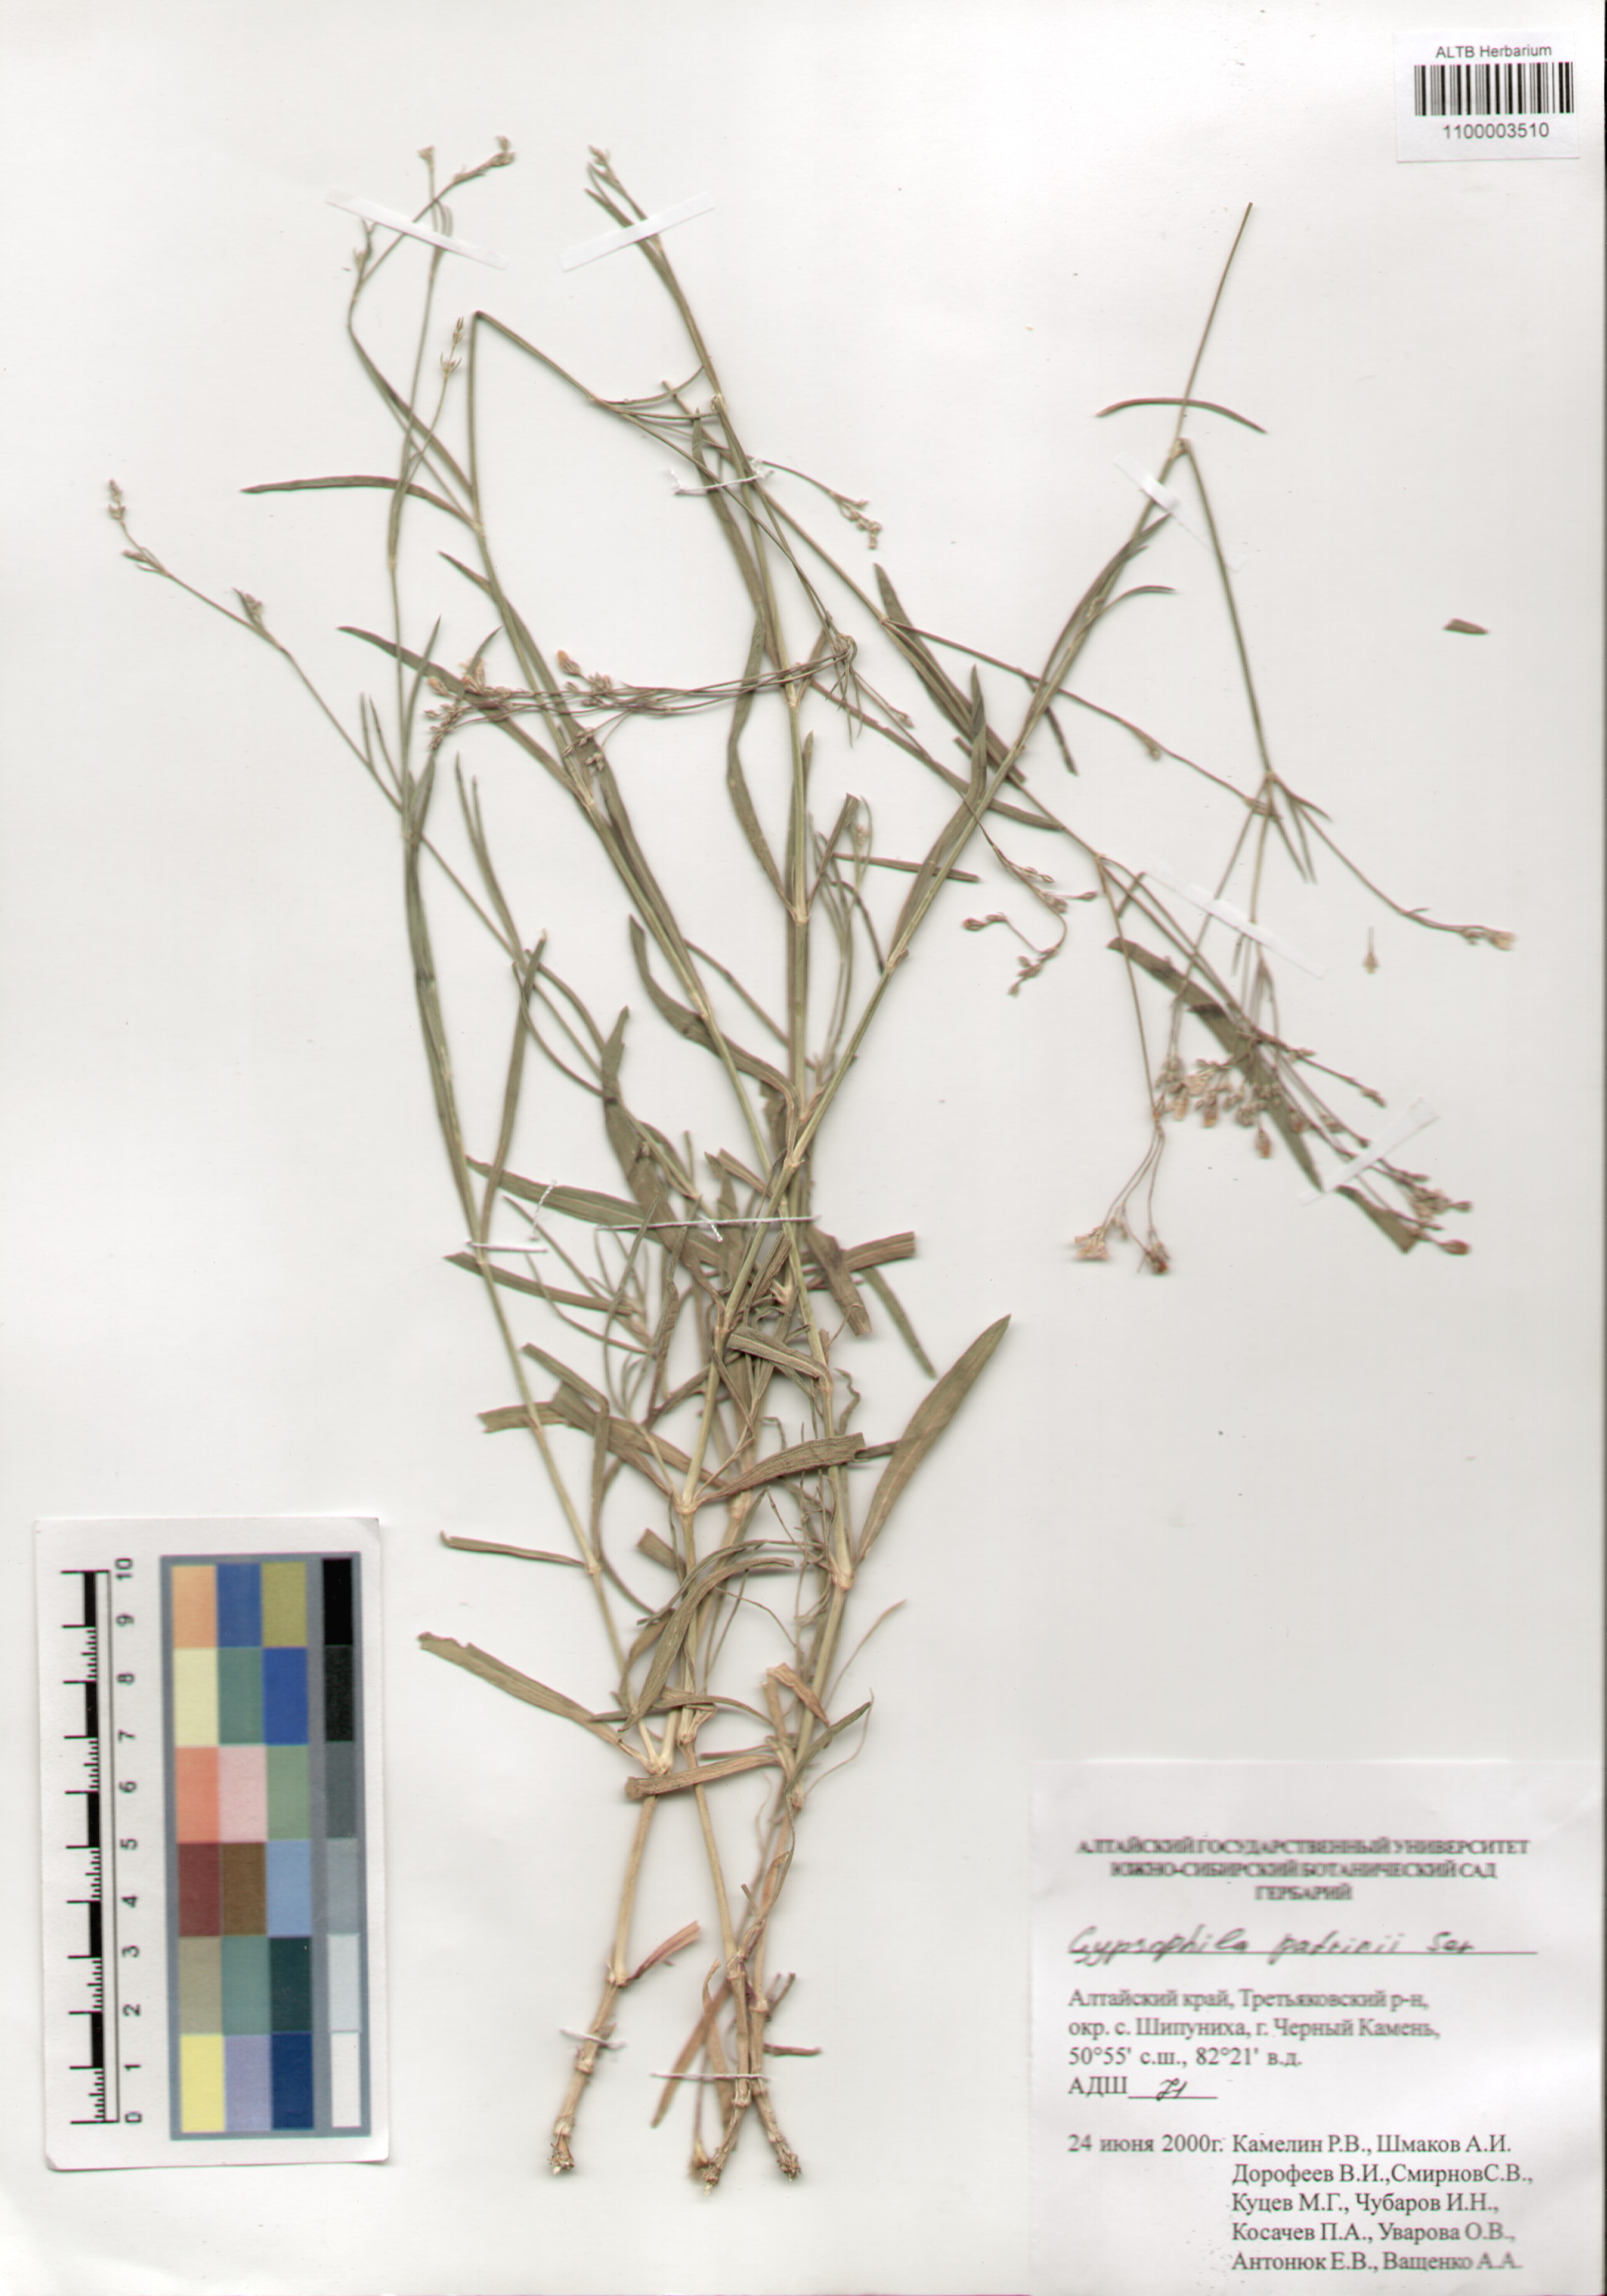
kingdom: Plantae
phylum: Tracheophyta
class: Magnoliopsida
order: Caryophyllales
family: Caryophyllaceae
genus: Gypsophila
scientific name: Gypsophila patrinii
